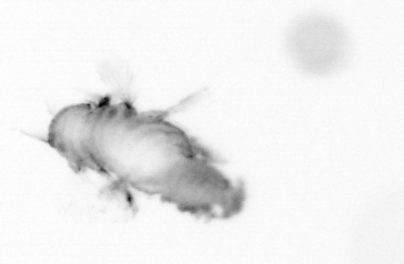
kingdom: Animalia
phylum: Annelida
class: Polychaeta
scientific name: Polychaeta
